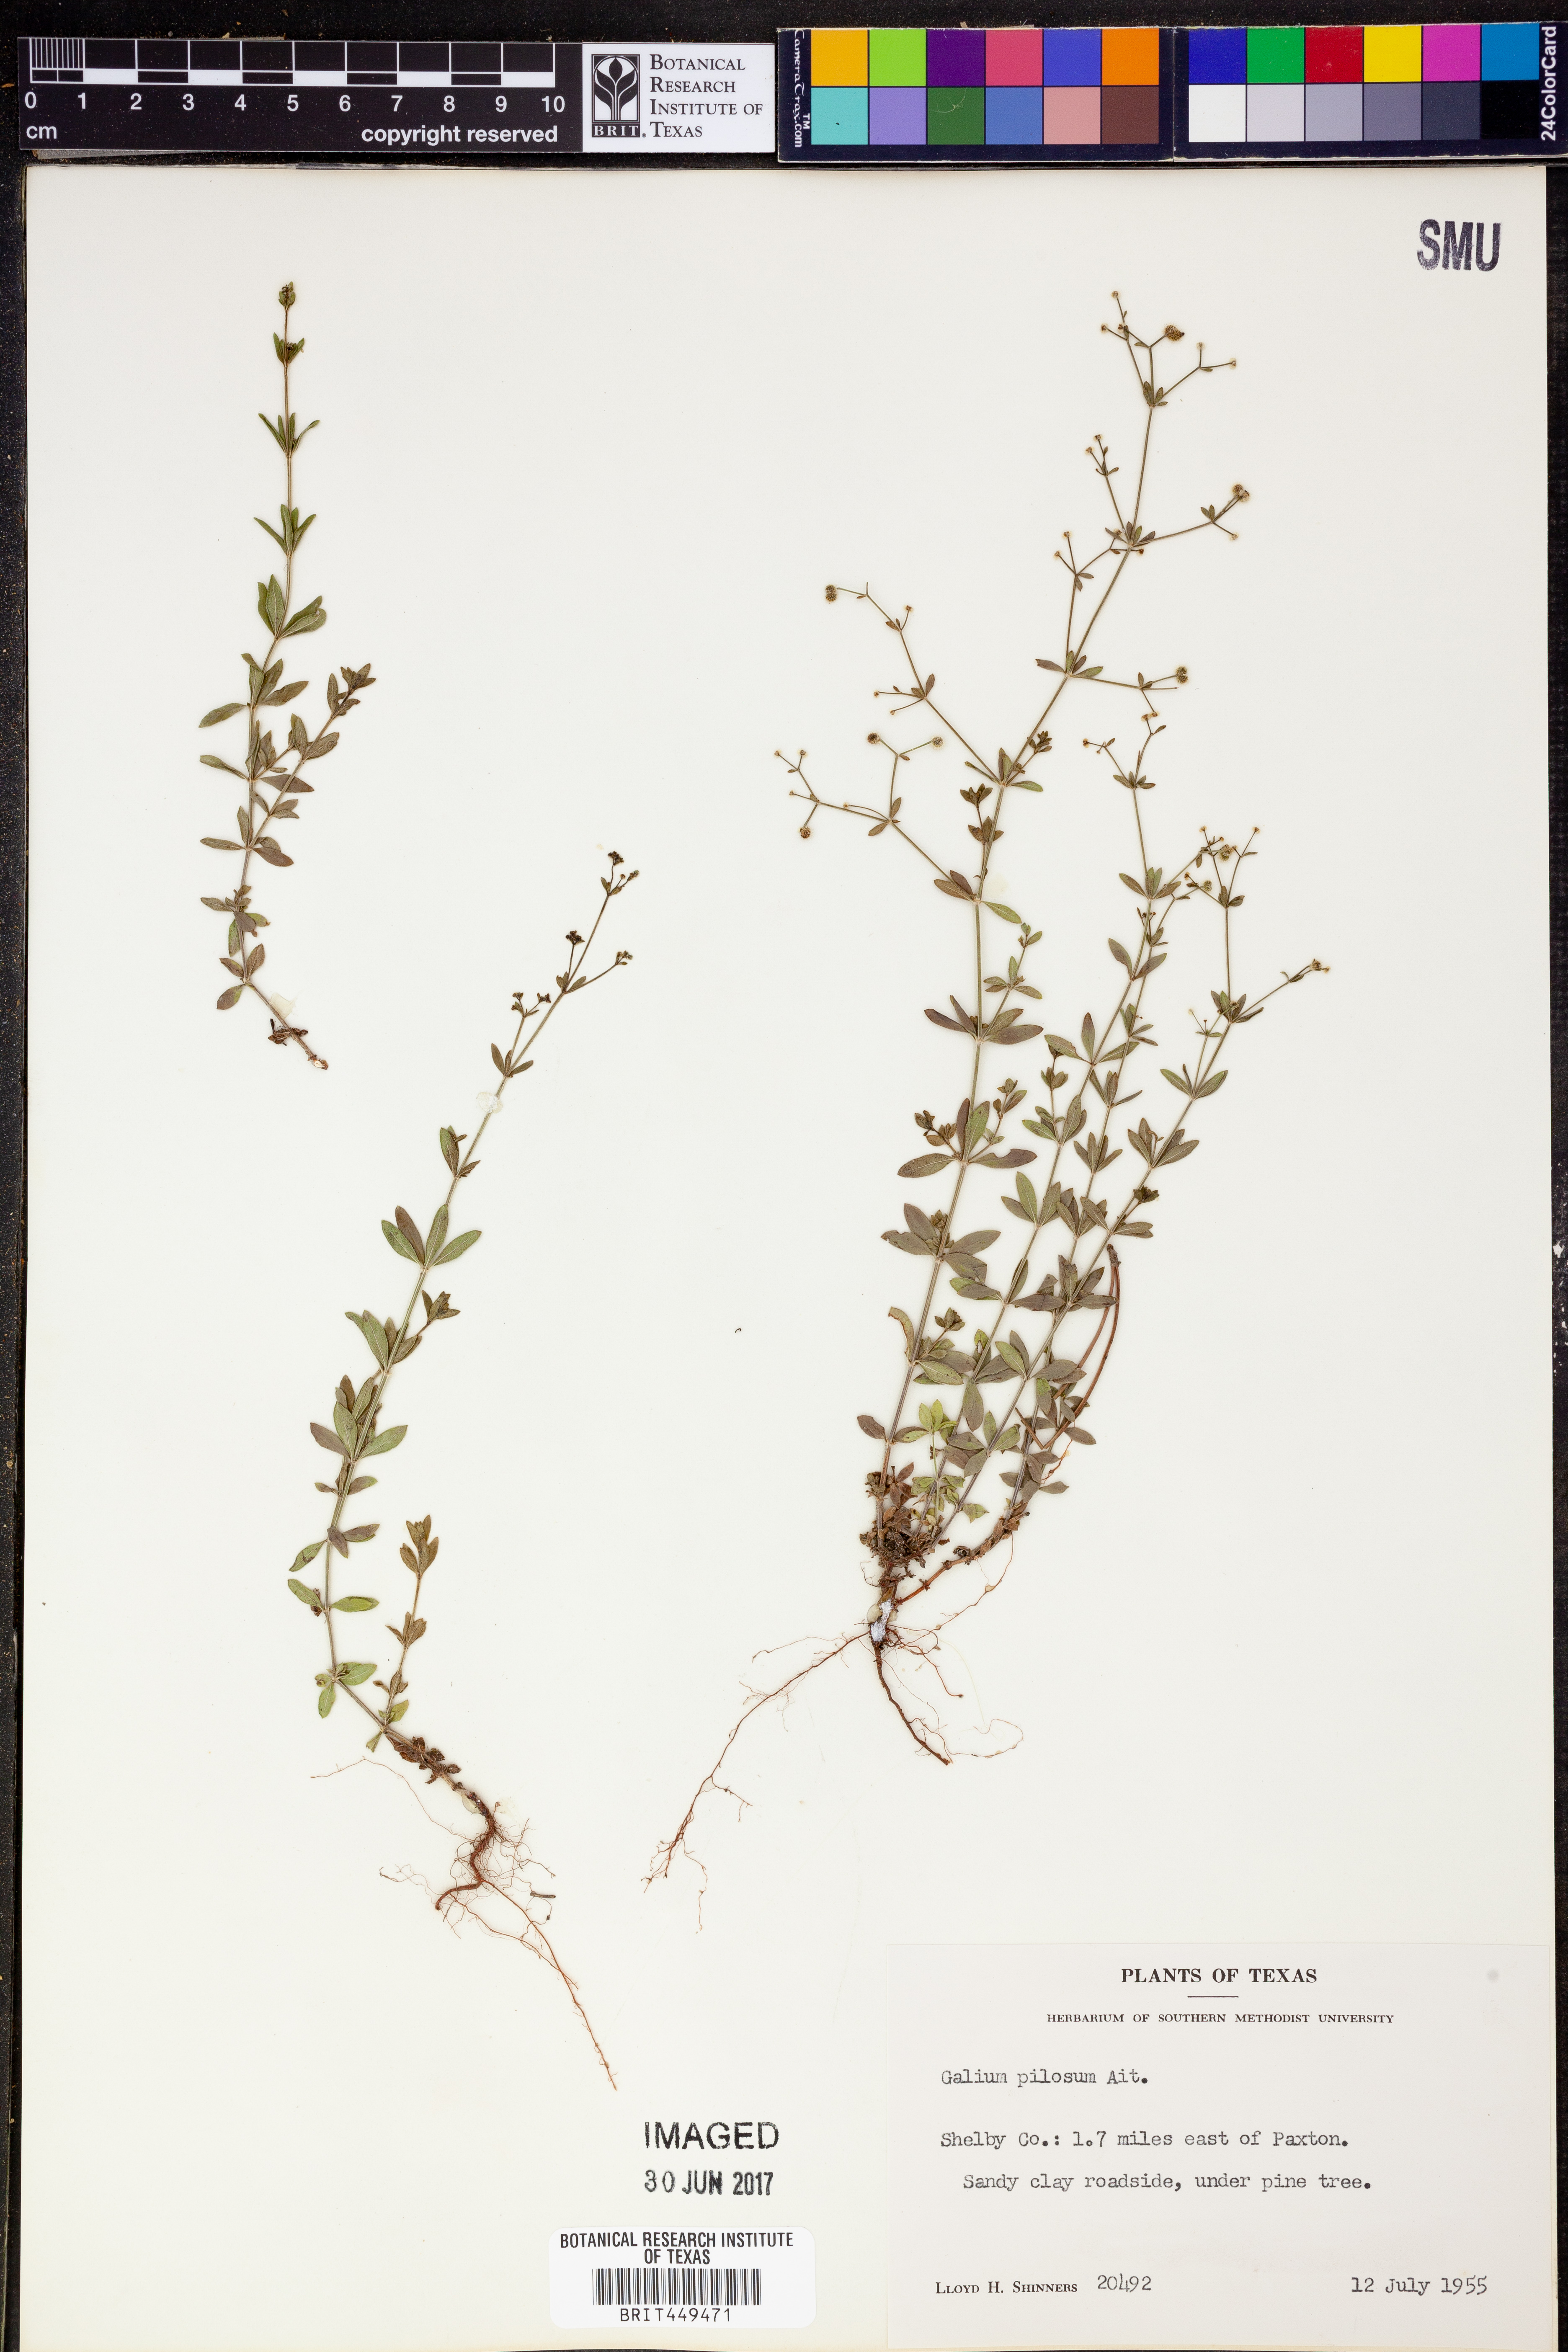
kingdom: Plantae
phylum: Tracheophyta
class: Magnoliopsida
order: Gentianales
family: Rubiaceae
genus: Galium
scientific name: Galium pilosum
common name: Hairy bedstraw
